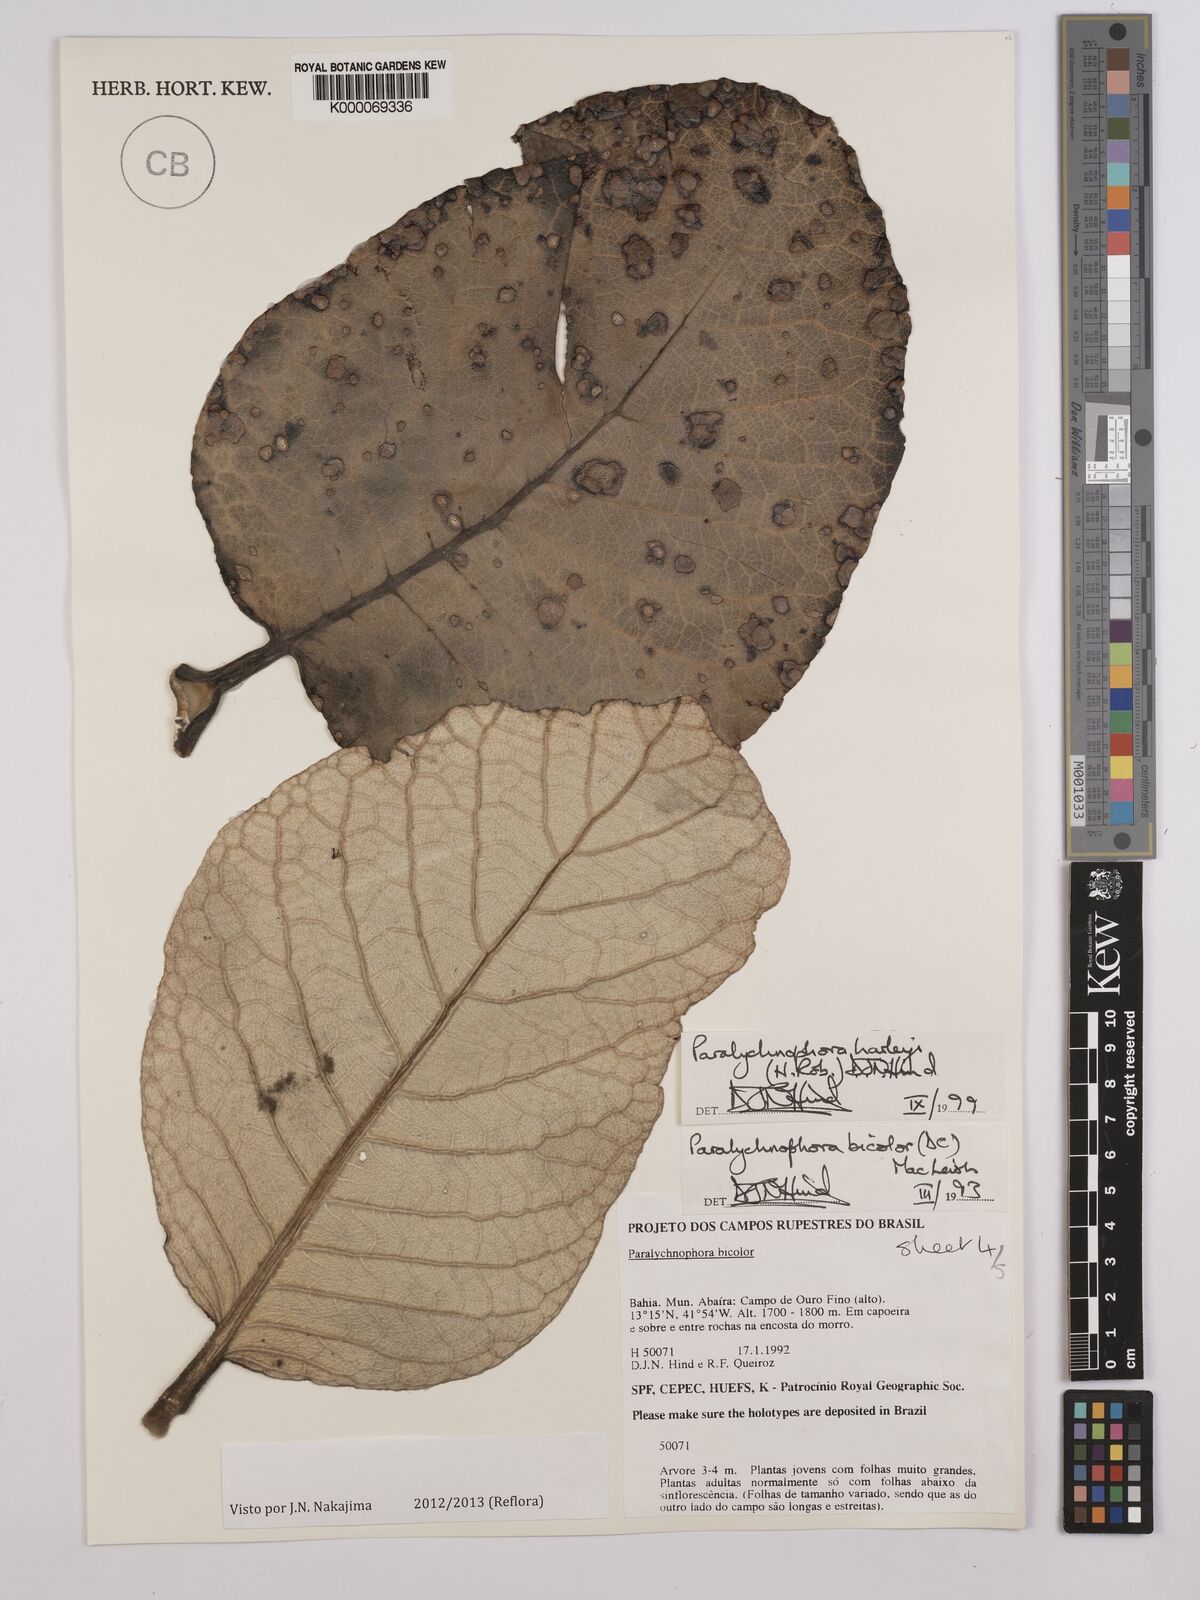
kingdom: Plantae
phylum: Tracheophyta
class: Magnoliopsida
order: Asterales
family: Asteraceae
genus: Paralychnophora
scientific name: Paralychnophora harleyi
